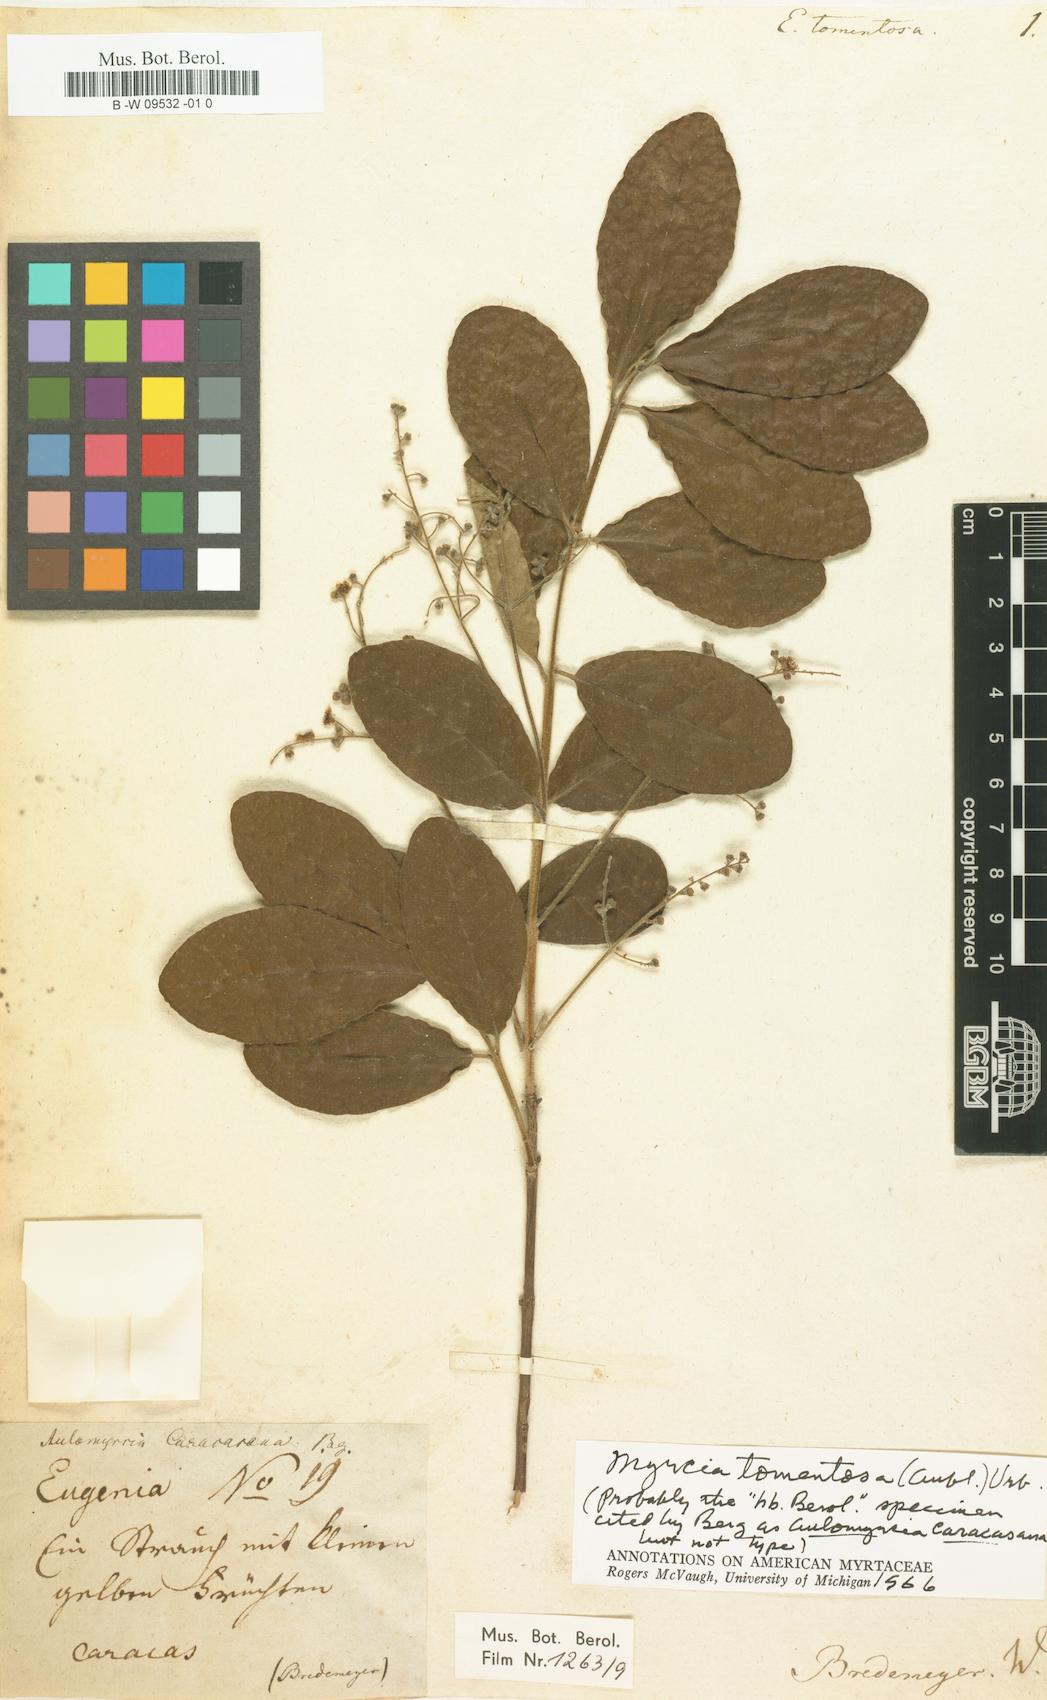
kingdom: Plantae
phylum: Tracheophyta
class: Magnoliopsida
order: Myrtales
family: Myrtaceae
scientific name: Myrtaceae
